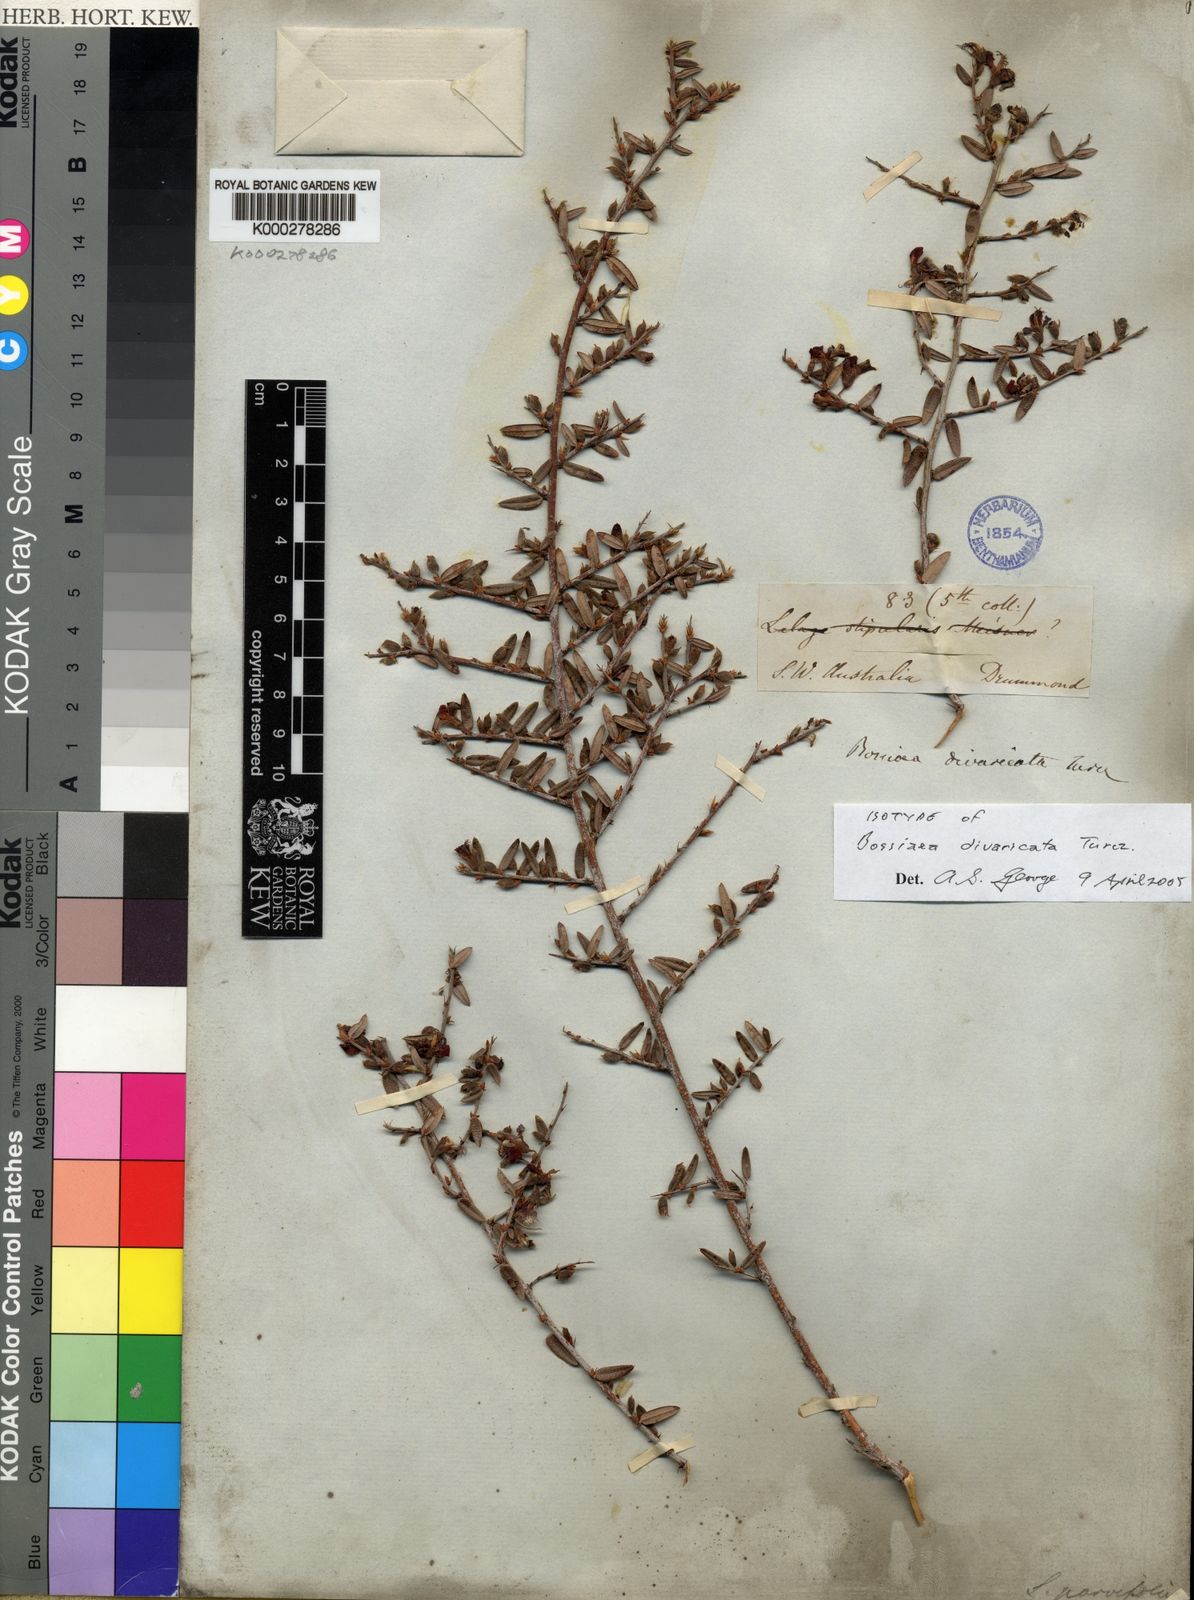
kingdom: Plantae
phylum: Tracheophyta
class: Magnoliopsida
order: Fabales
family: Fabaceae
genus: Bossiaea
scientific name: Bossiaea divaricata
